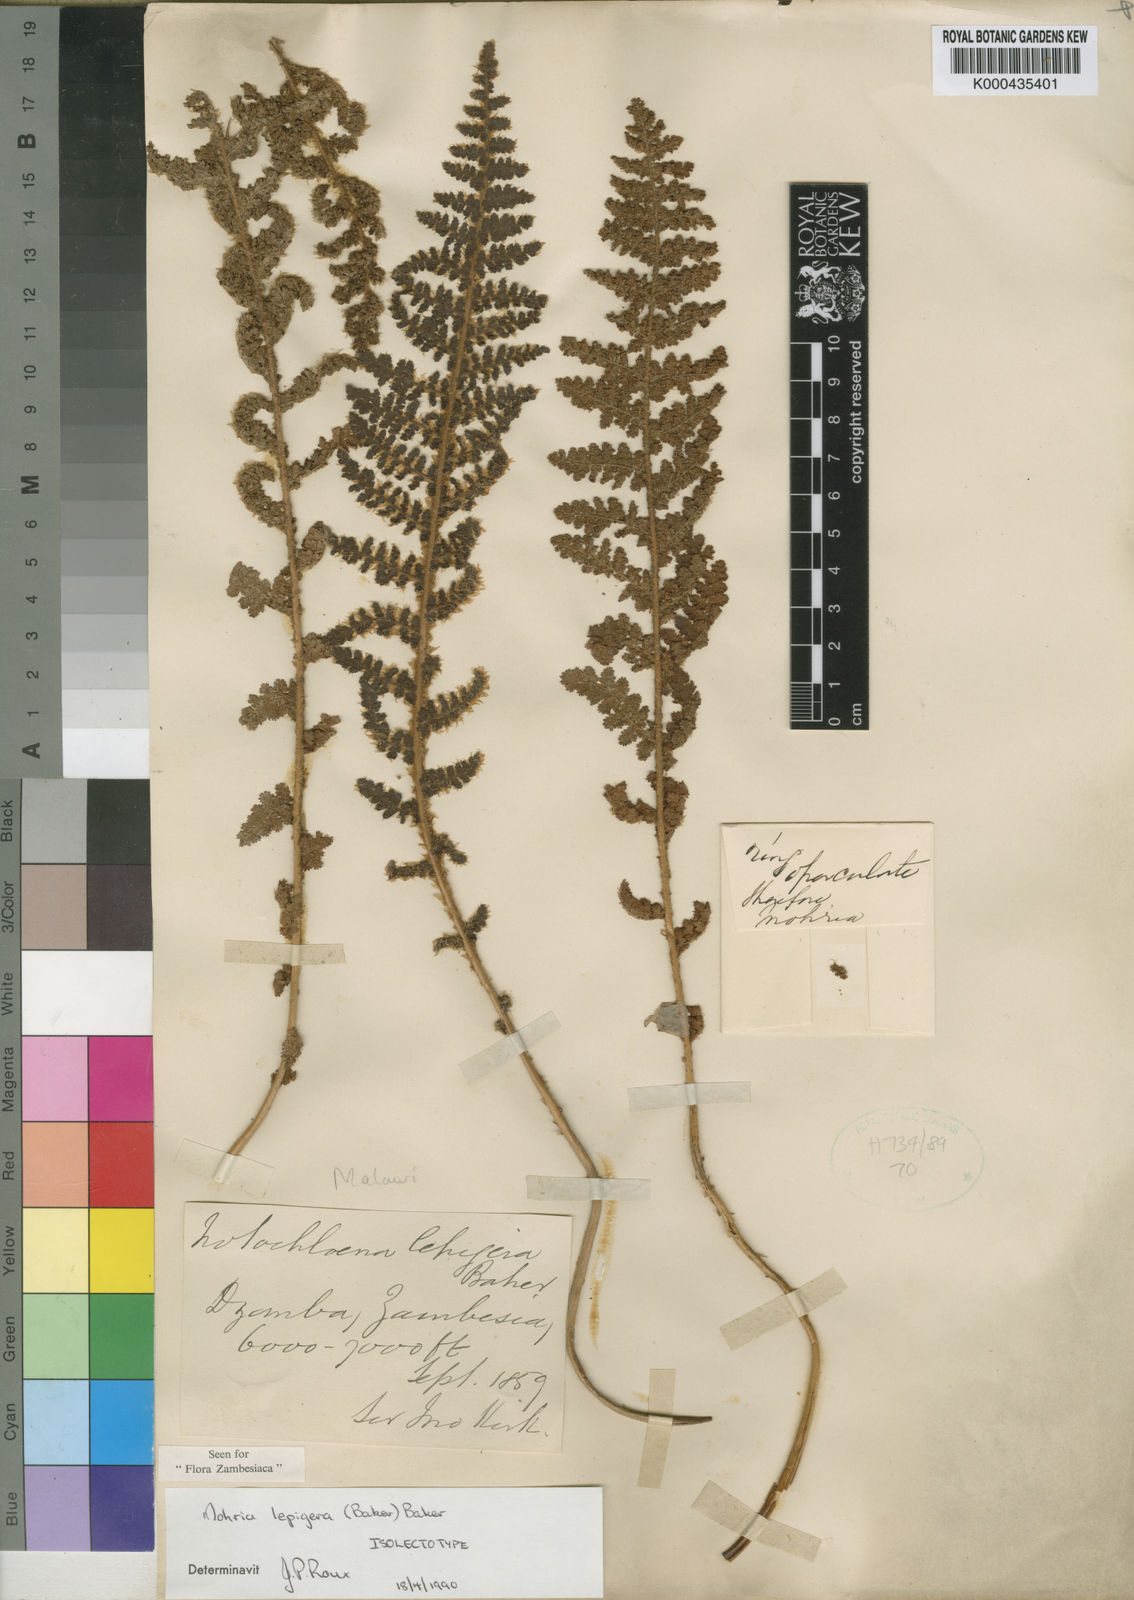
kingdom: Plantae
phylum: Tracheophyta
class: Polypodiopsida
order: Schizaeales
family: Anemiaceae
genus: Anemia
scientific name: Anemia lepigera
